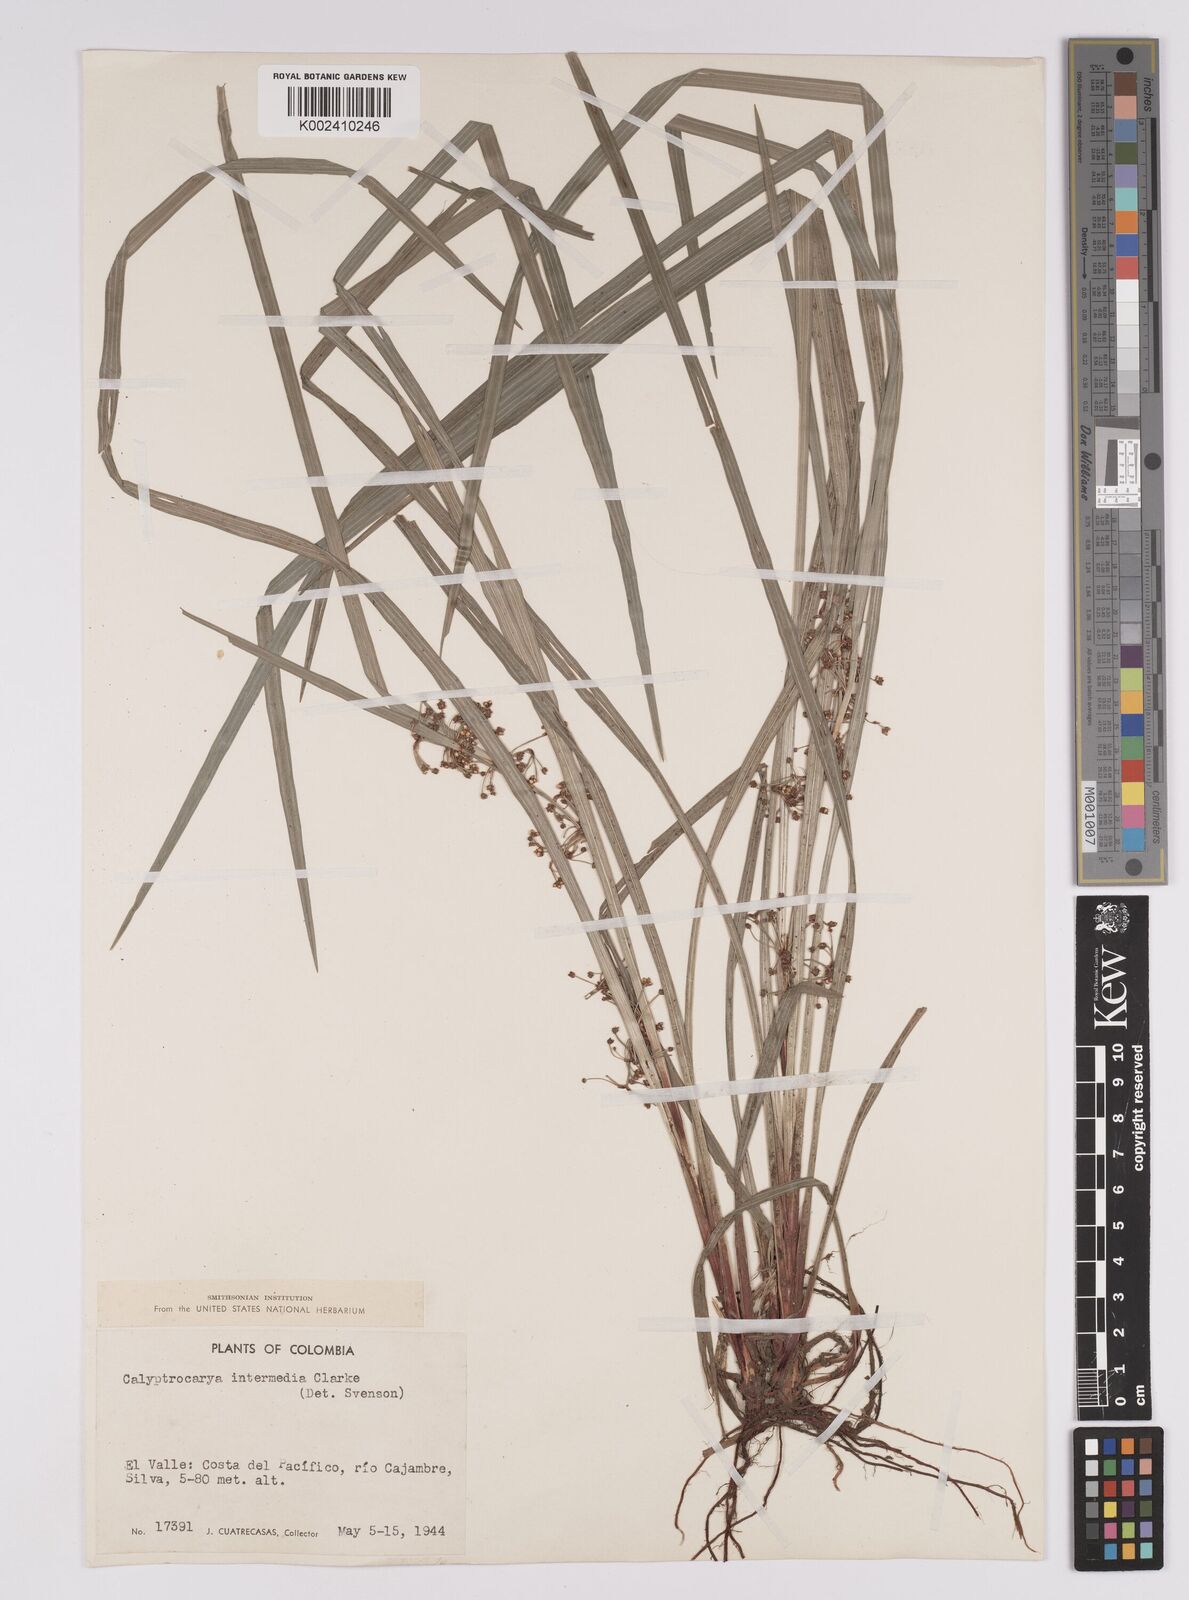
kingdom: Plantae
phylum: Tracheophyta
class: Liliopsida
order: Poales
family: Cyperaceae
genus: Calyptrocarya
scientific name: Calyptrocarya glomerulata
